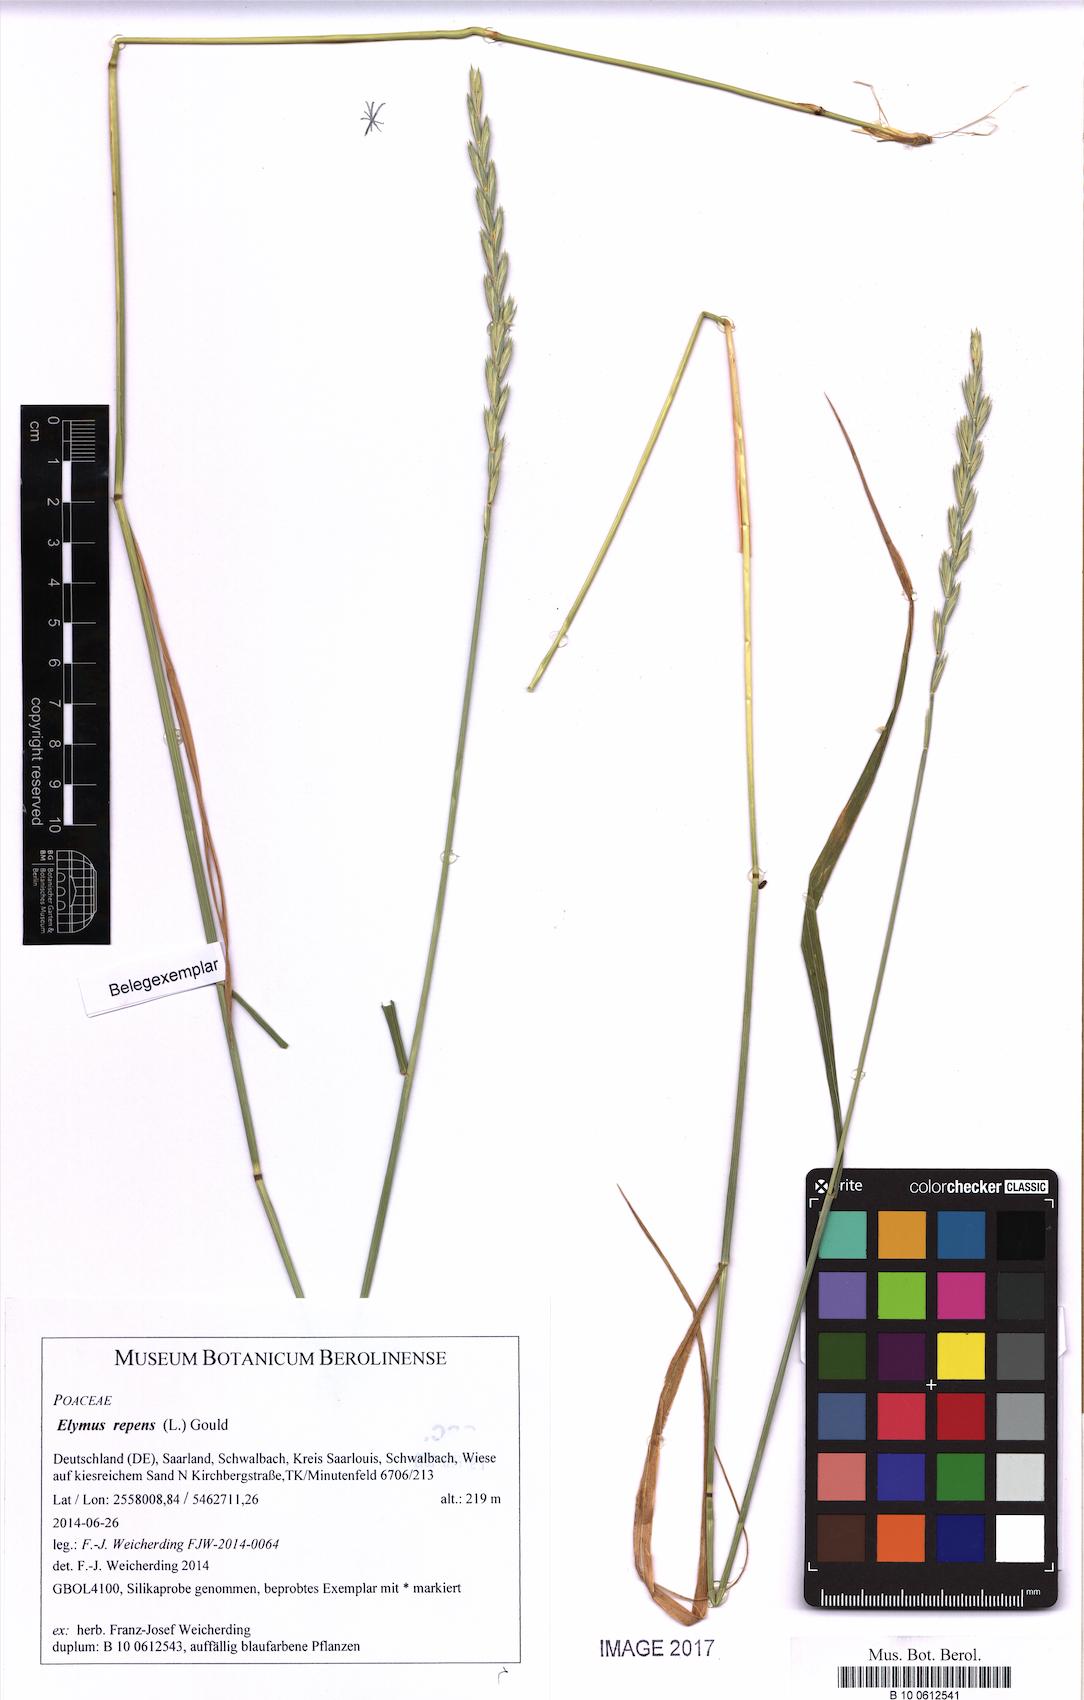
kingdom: Plantae
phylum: Tracheophyta
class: Liliopsida
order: Poales
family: Poaceae
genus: Elymus
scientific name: Elymus repens
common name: Quackgrass
